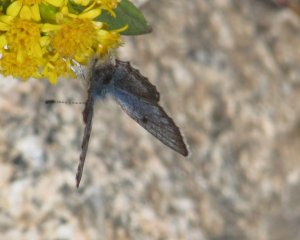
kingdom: Animalia
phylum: Arthropoda
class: Insecta
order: Lepidoptera
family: Lycaenidae
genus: Euphilotes
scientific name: Euphilotes enoptes
